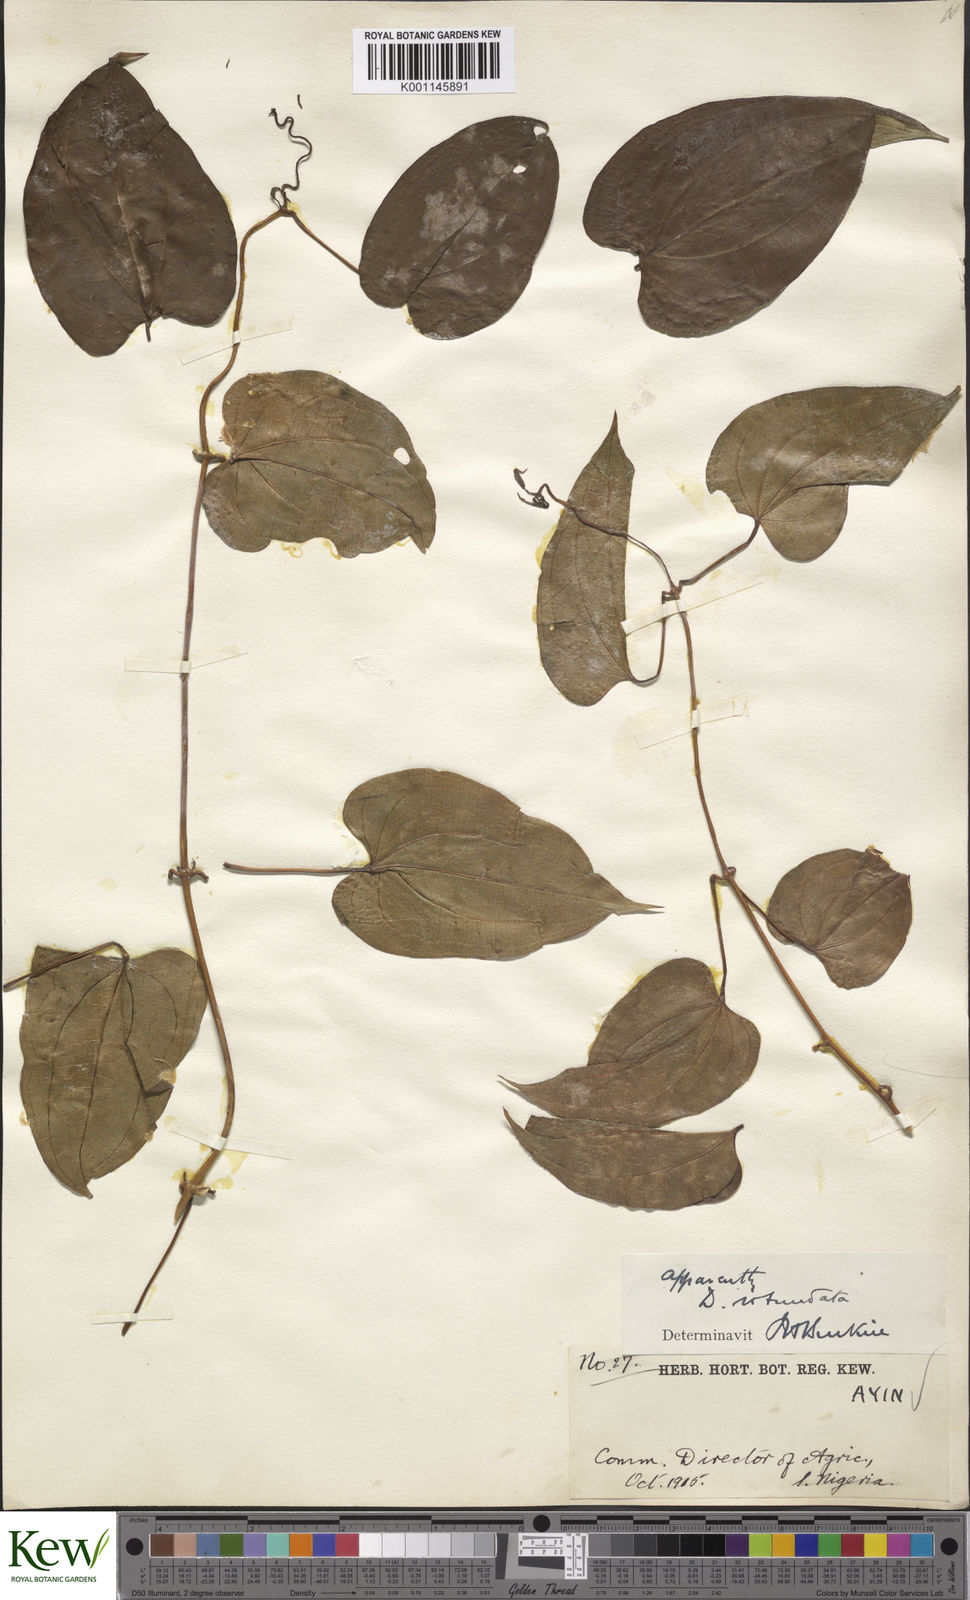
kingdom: Plantae
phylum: Tracheophyta
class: Liliopsida
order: Dioscoreales
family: Dioscoreaceae
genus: Dioscorea
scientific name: Dioscorea cayenensis
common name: Attoto yam
